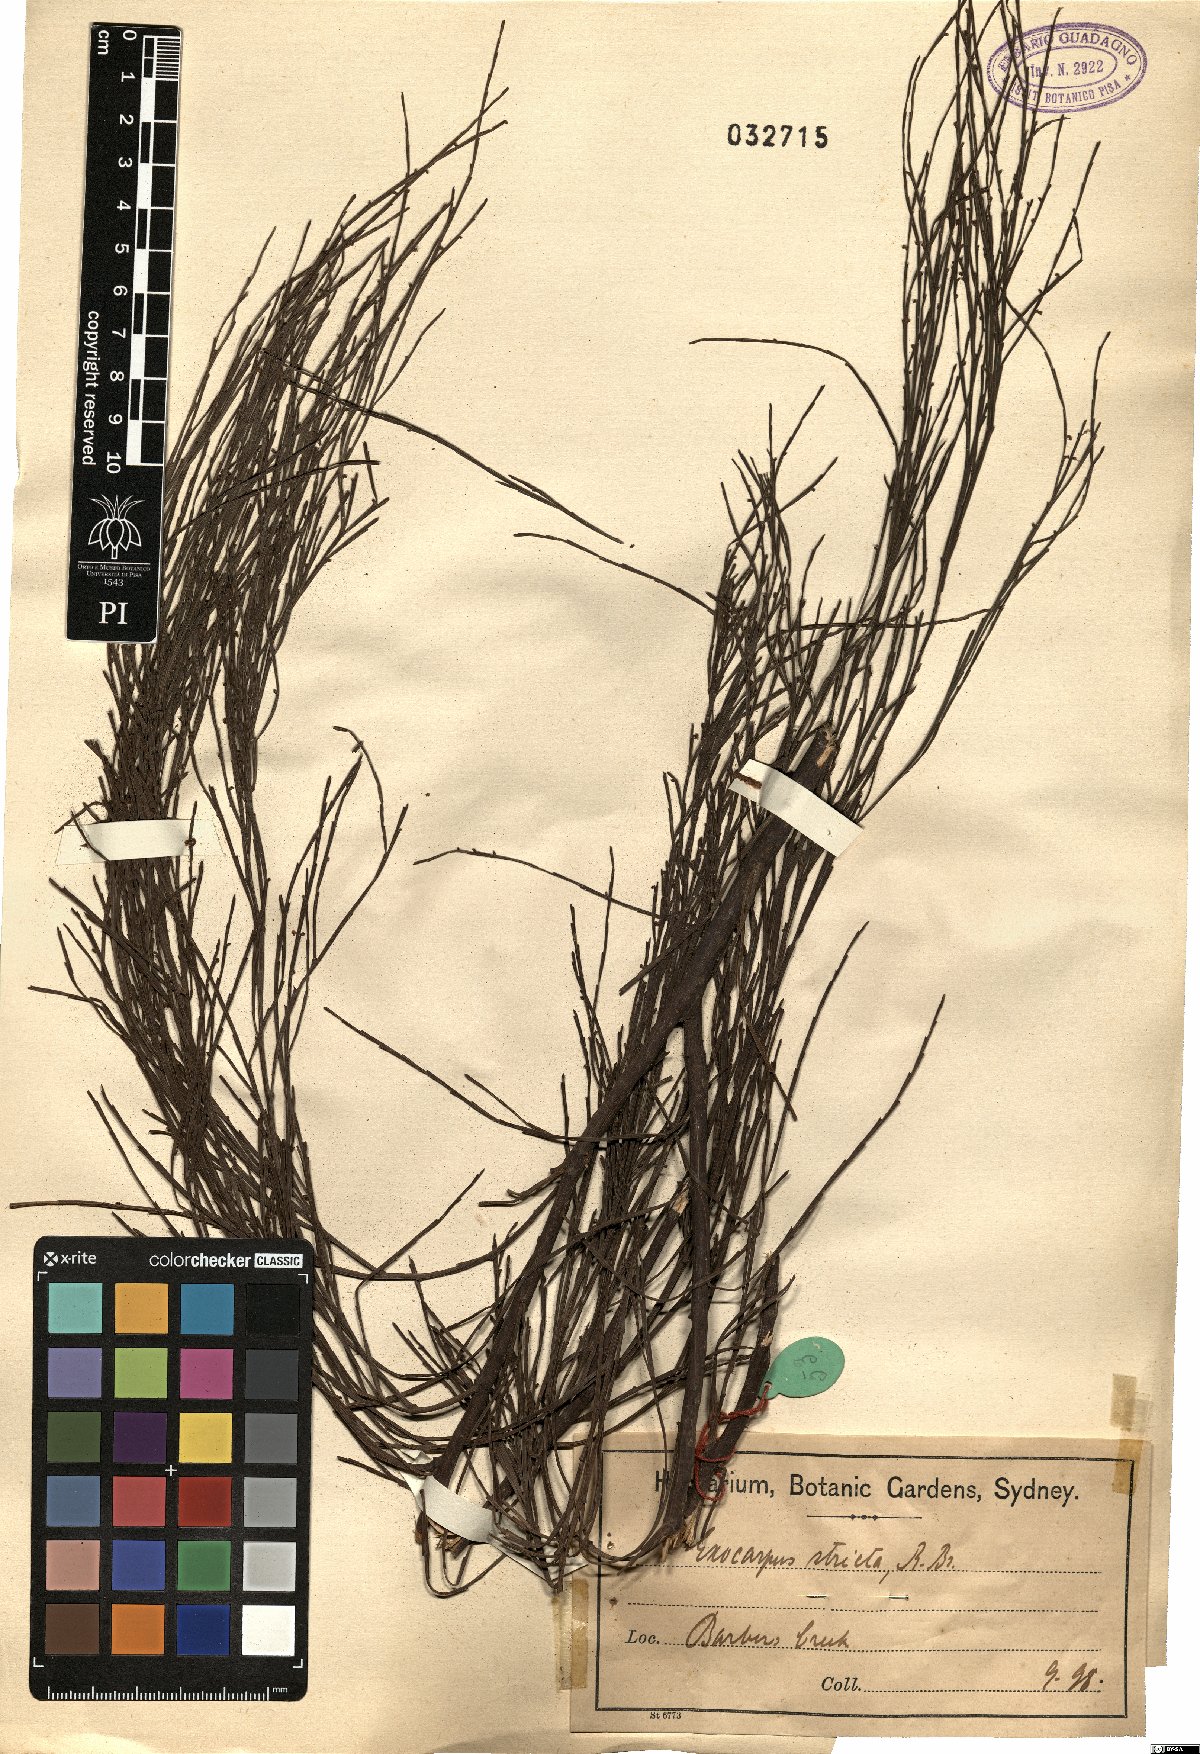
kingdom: Plantae
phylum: Tracheophyta
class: Magnoliopsida
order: Santalales
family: Santalaceae
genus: Exocarpos
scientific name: Exocarpos strictus
